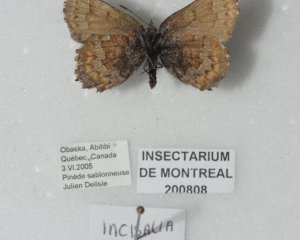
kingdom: Animalia
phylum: Arthropoda
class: Insecta
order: Lepidoptera
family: Lycaenidae
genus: Incisalia
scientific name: Incisalia niphon
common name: Eastern Pine Elfin
